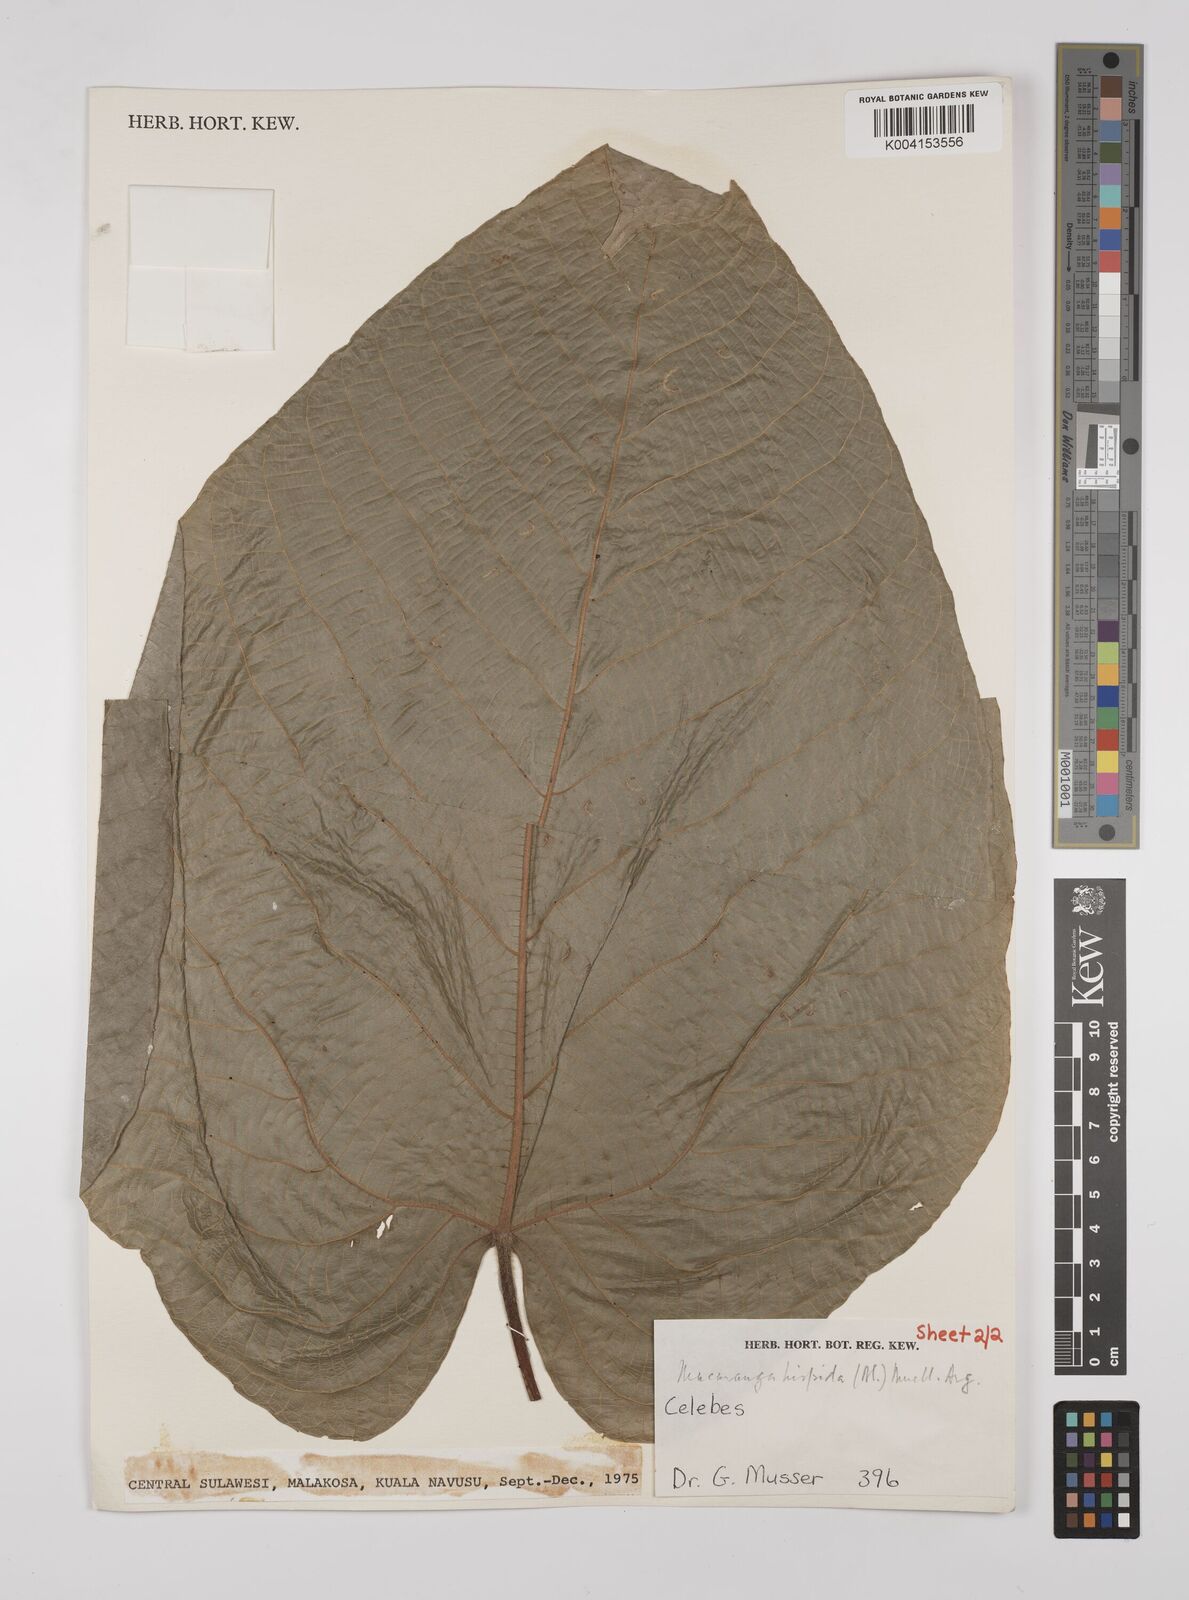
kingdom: Plantae
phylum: Tracheophyta
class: Magnoliopsida
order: Malpighiales
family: Euphorbiaceae
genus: Macaranga
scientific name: Macaranga hispida
